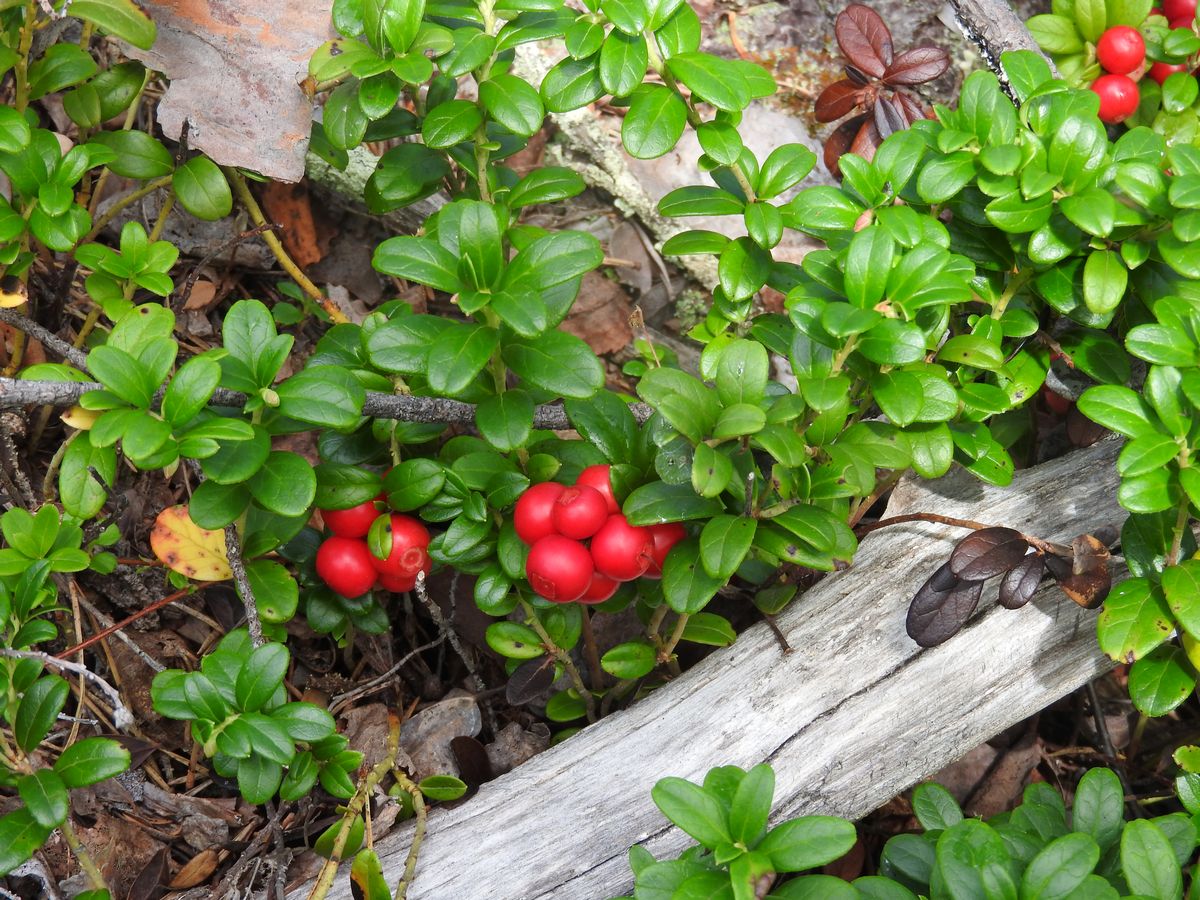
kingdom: Plantae
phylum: Tracheophyta
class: Magnoliopsida
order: Ericales
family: Ericaceae
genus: Vaccinium
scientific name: Vaccinium vitis-idaea
